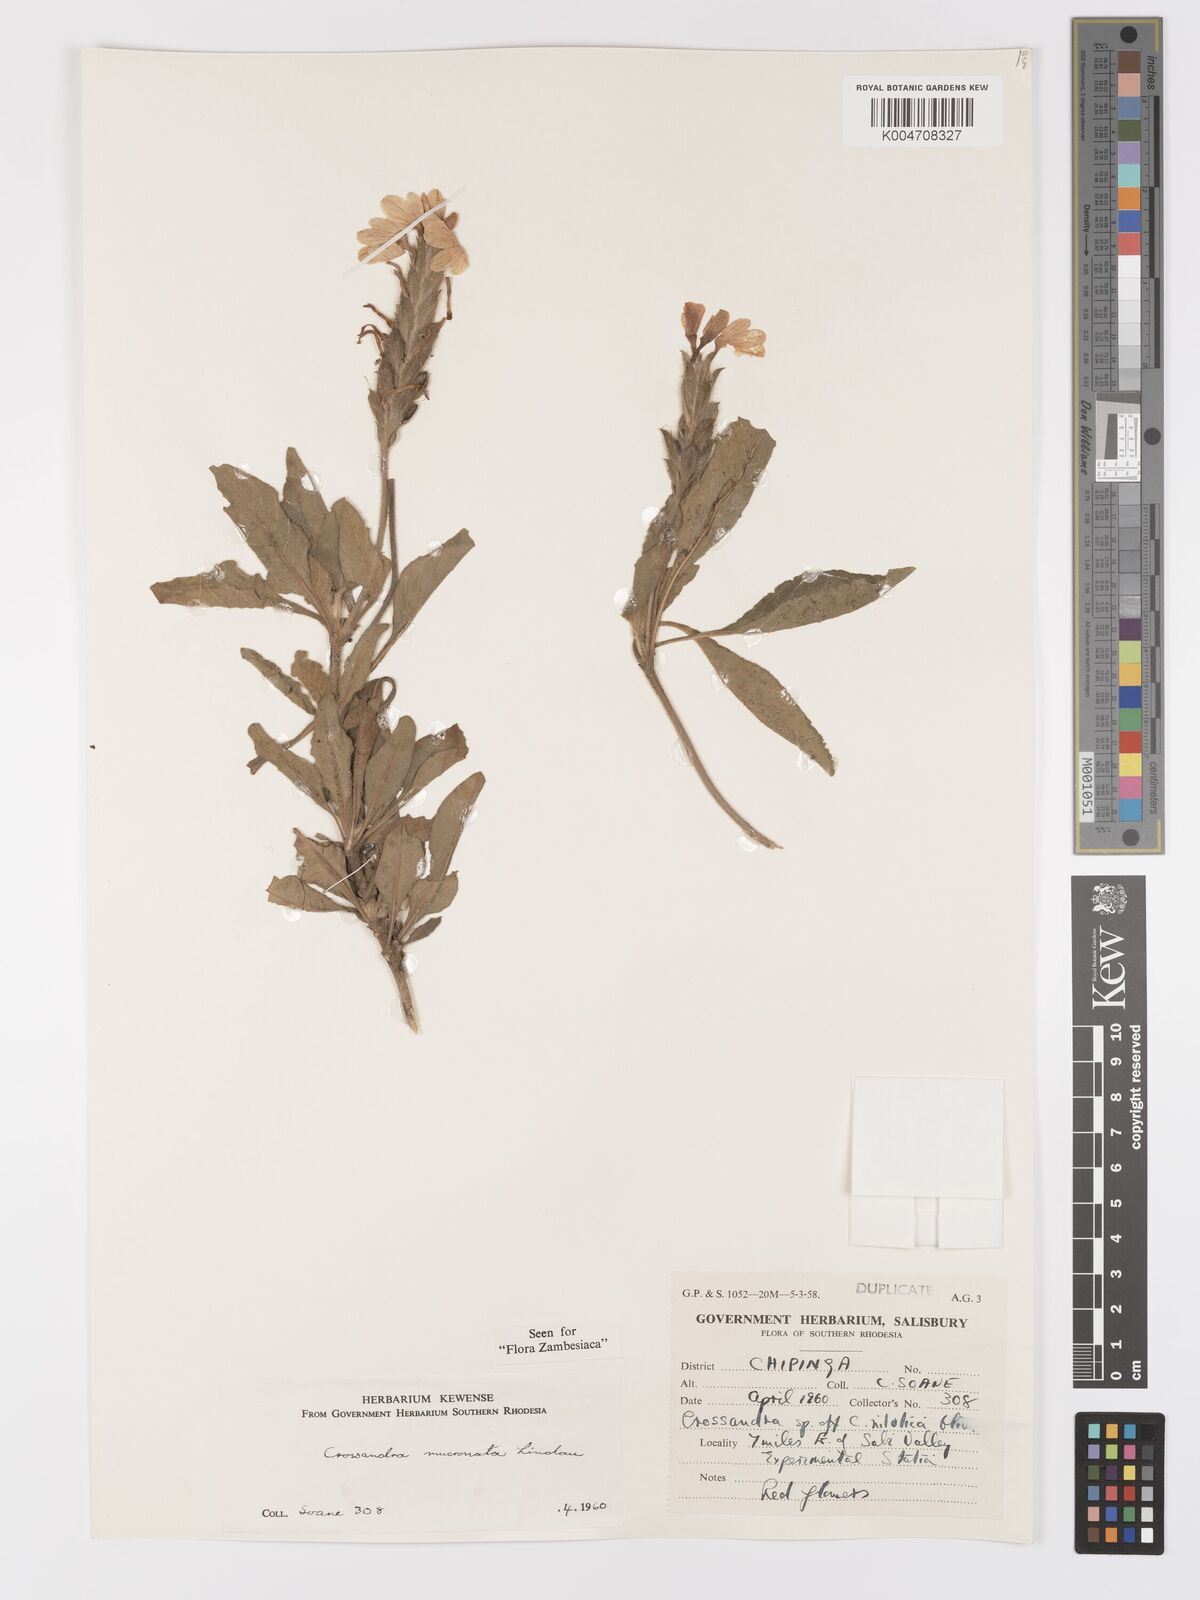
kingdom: Plantae
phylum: Tracheophyta
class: Magnoliopsida
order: Lamiales
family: Acanthaceae
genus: Crossandra
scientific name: Crossandra mucronata
